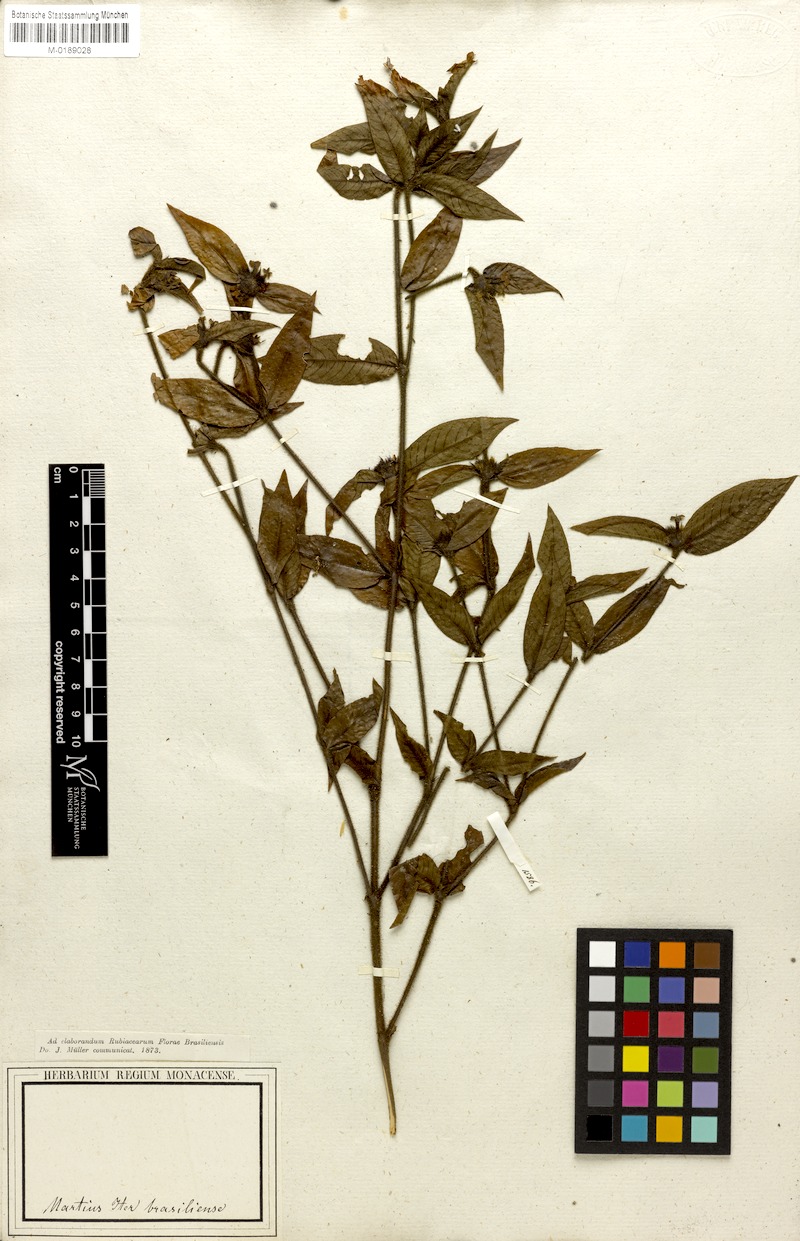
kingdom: Plantae
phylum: Tracheophyta
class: Magnoliopsida
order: Gentianales
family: Rubiaceae
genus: Palicourea
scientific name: Palicourea iodotricha
